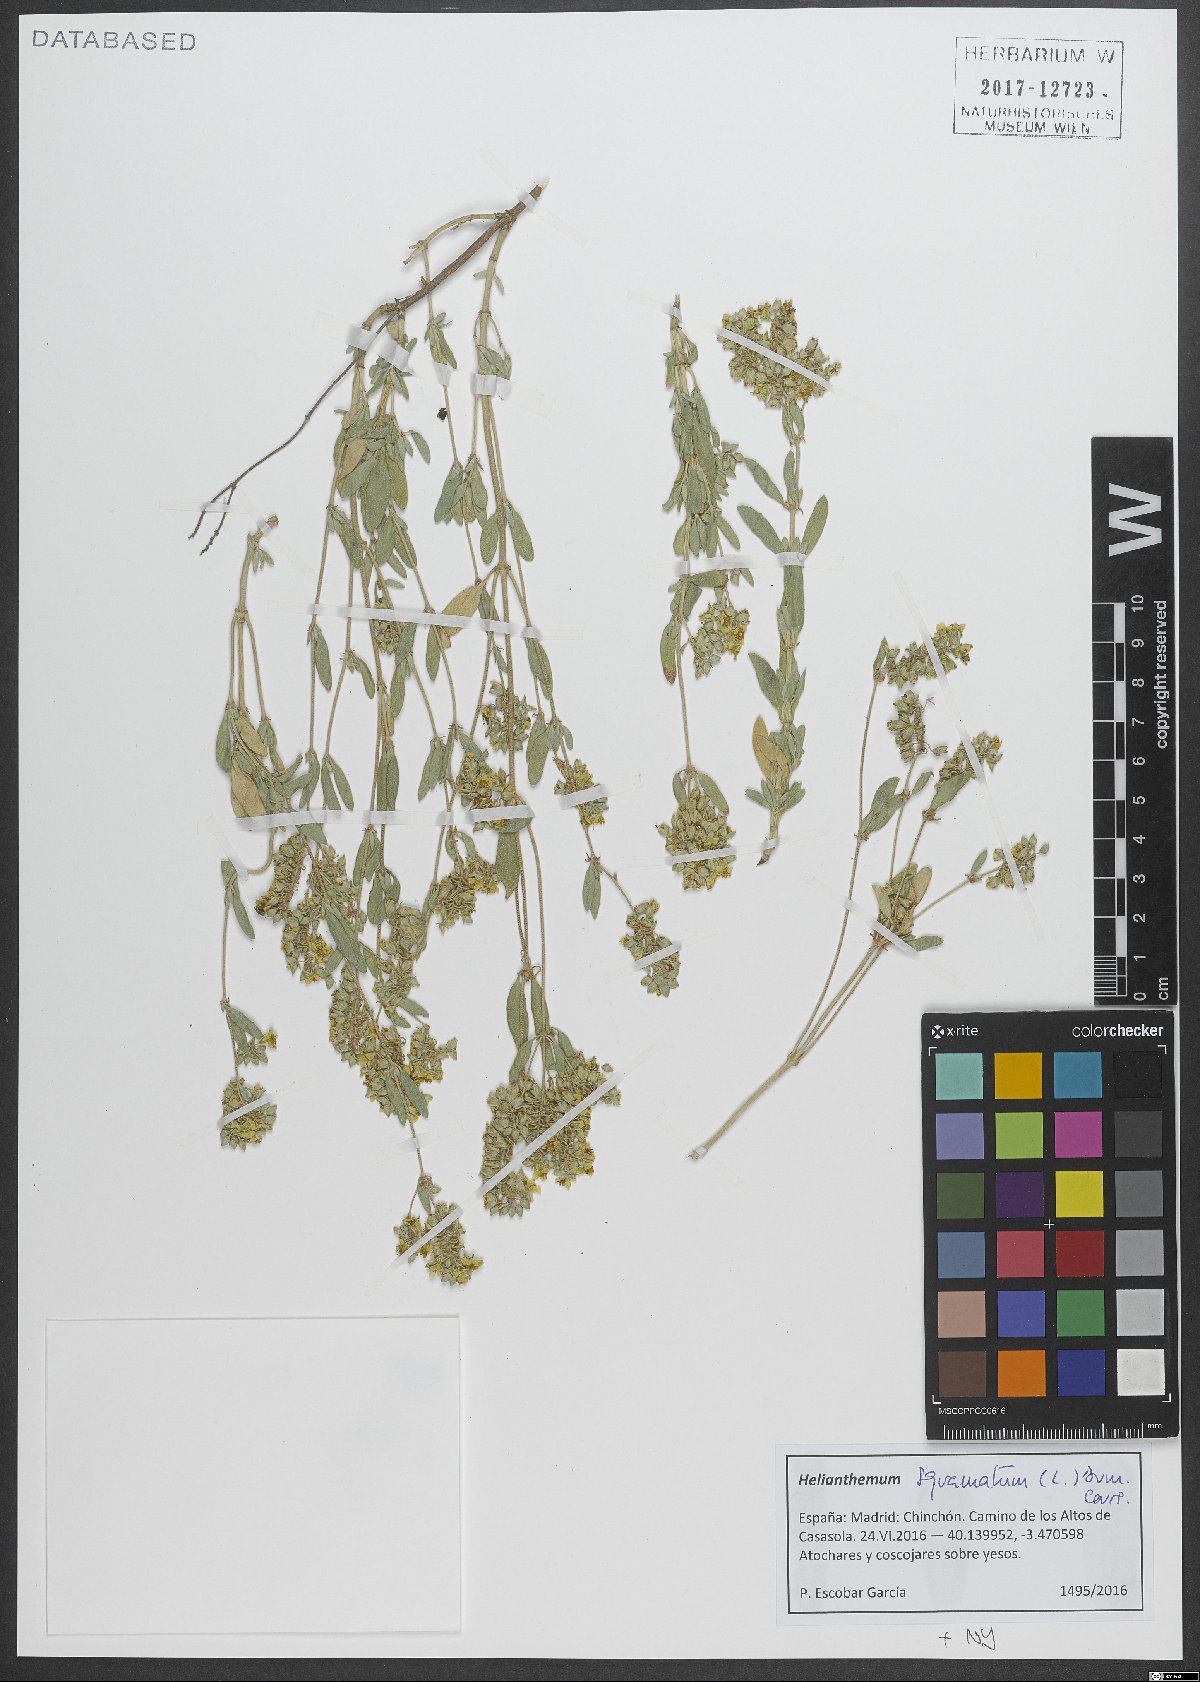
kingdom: Plantae
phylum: Tracheophyta
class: Magnoliopsida
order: Malvales
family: Cistaceae
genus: Helianthemum
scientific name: Helianthemum squamatum
